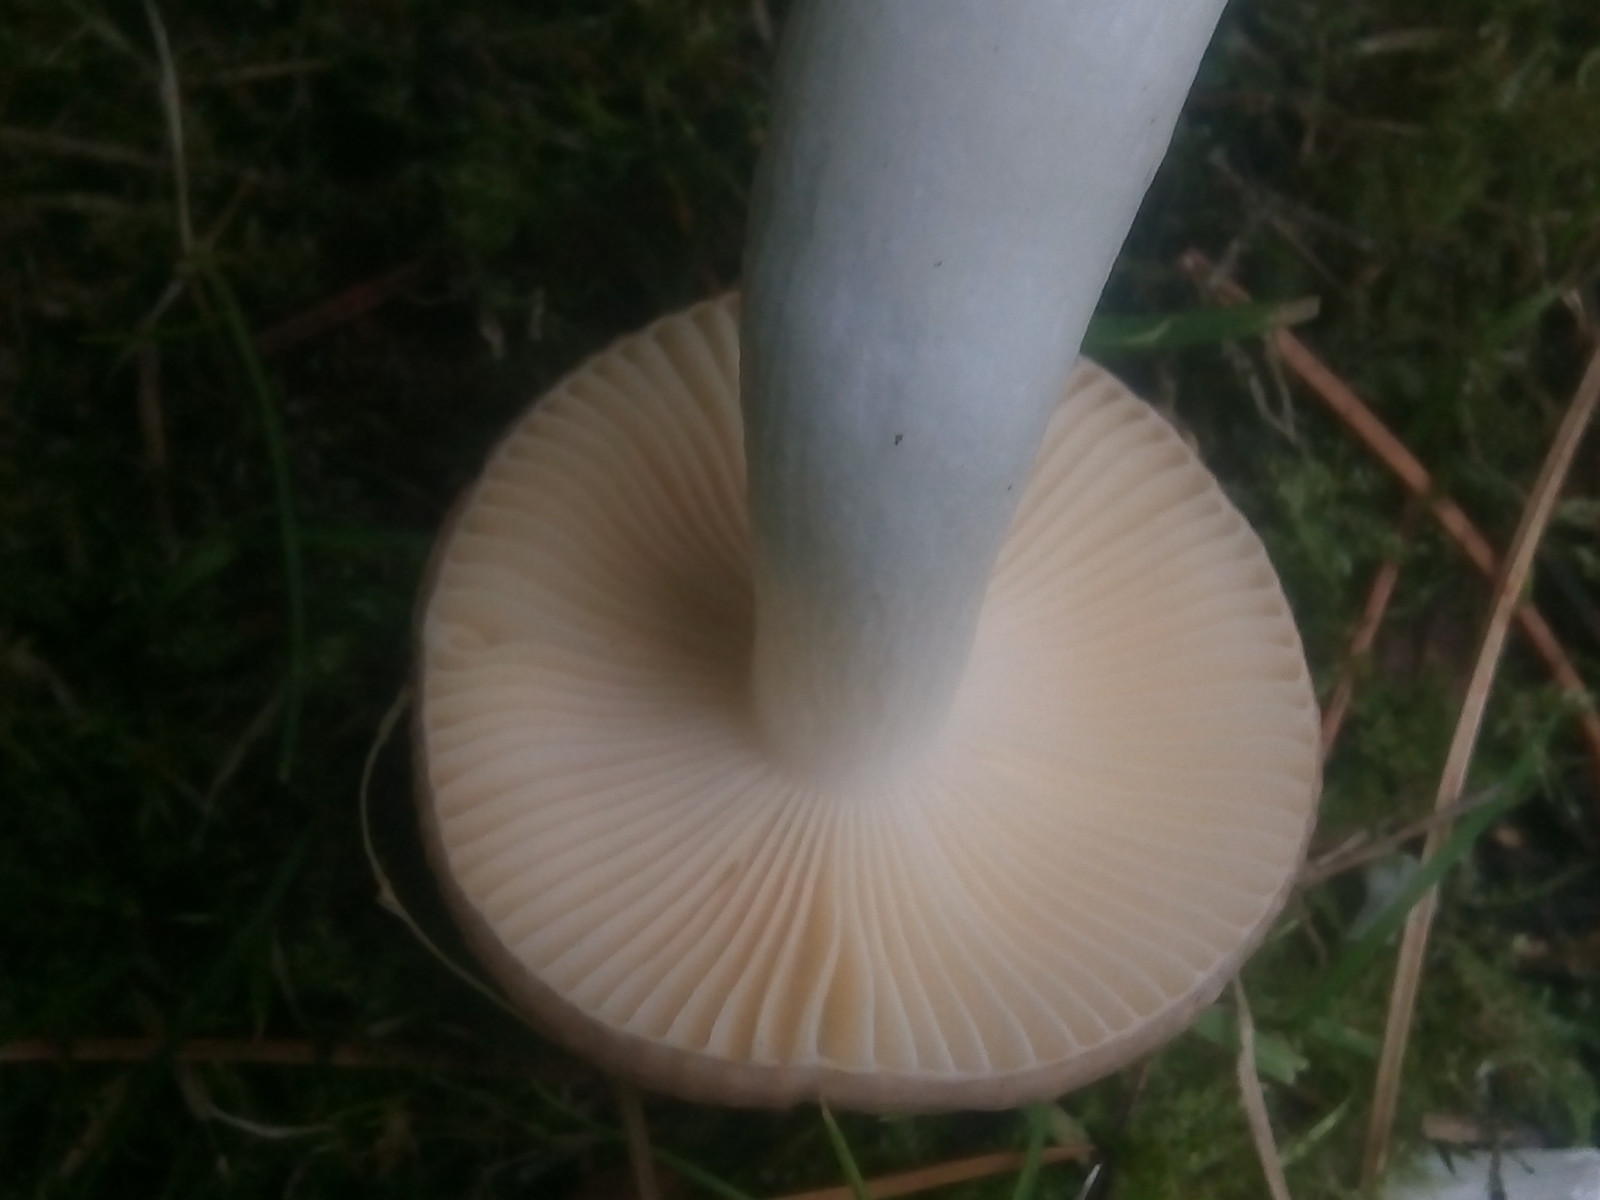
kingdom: Fungi
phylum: Basidiomycota
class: Agaricomycetes
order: Russulales
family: Russulaceae
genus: Russula
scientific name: Russula cessans
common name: fyrre-skørhat
